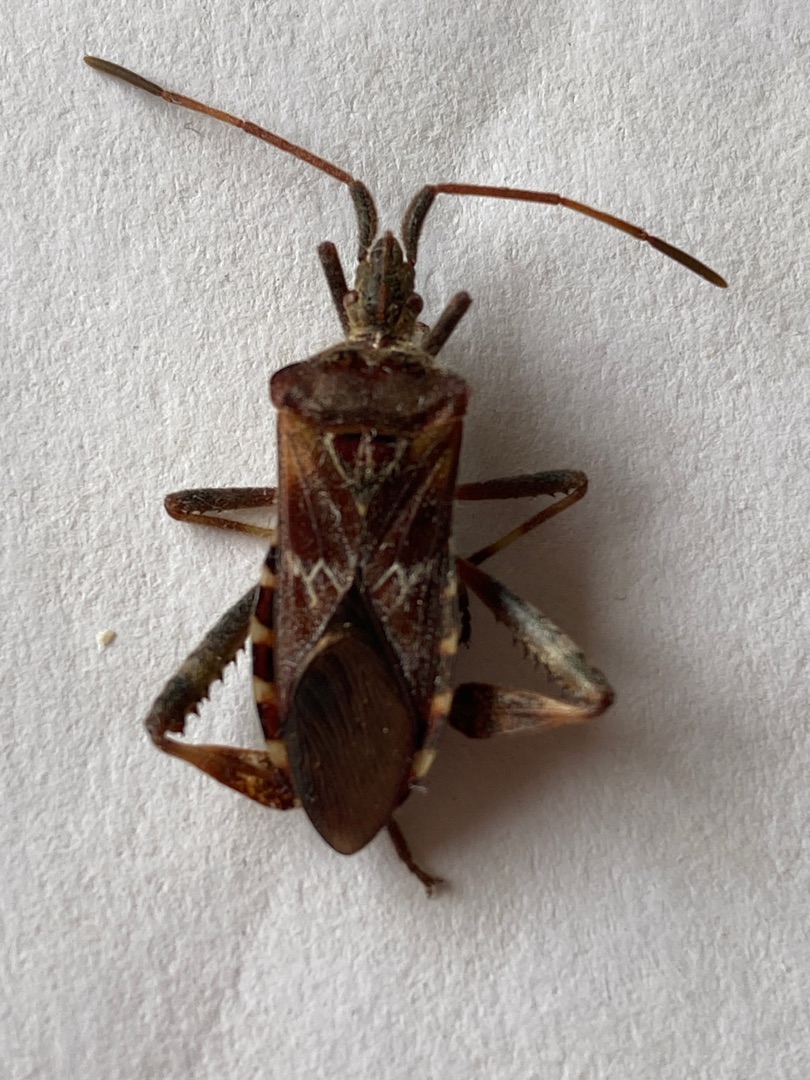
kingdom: Animalia
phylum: Arthropoda
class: Insecta
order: Hemiptera
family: Coreidae
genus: Leptoglossus
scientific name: Leptoglossus occidentalis
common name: Amerikansk fyrretæge
